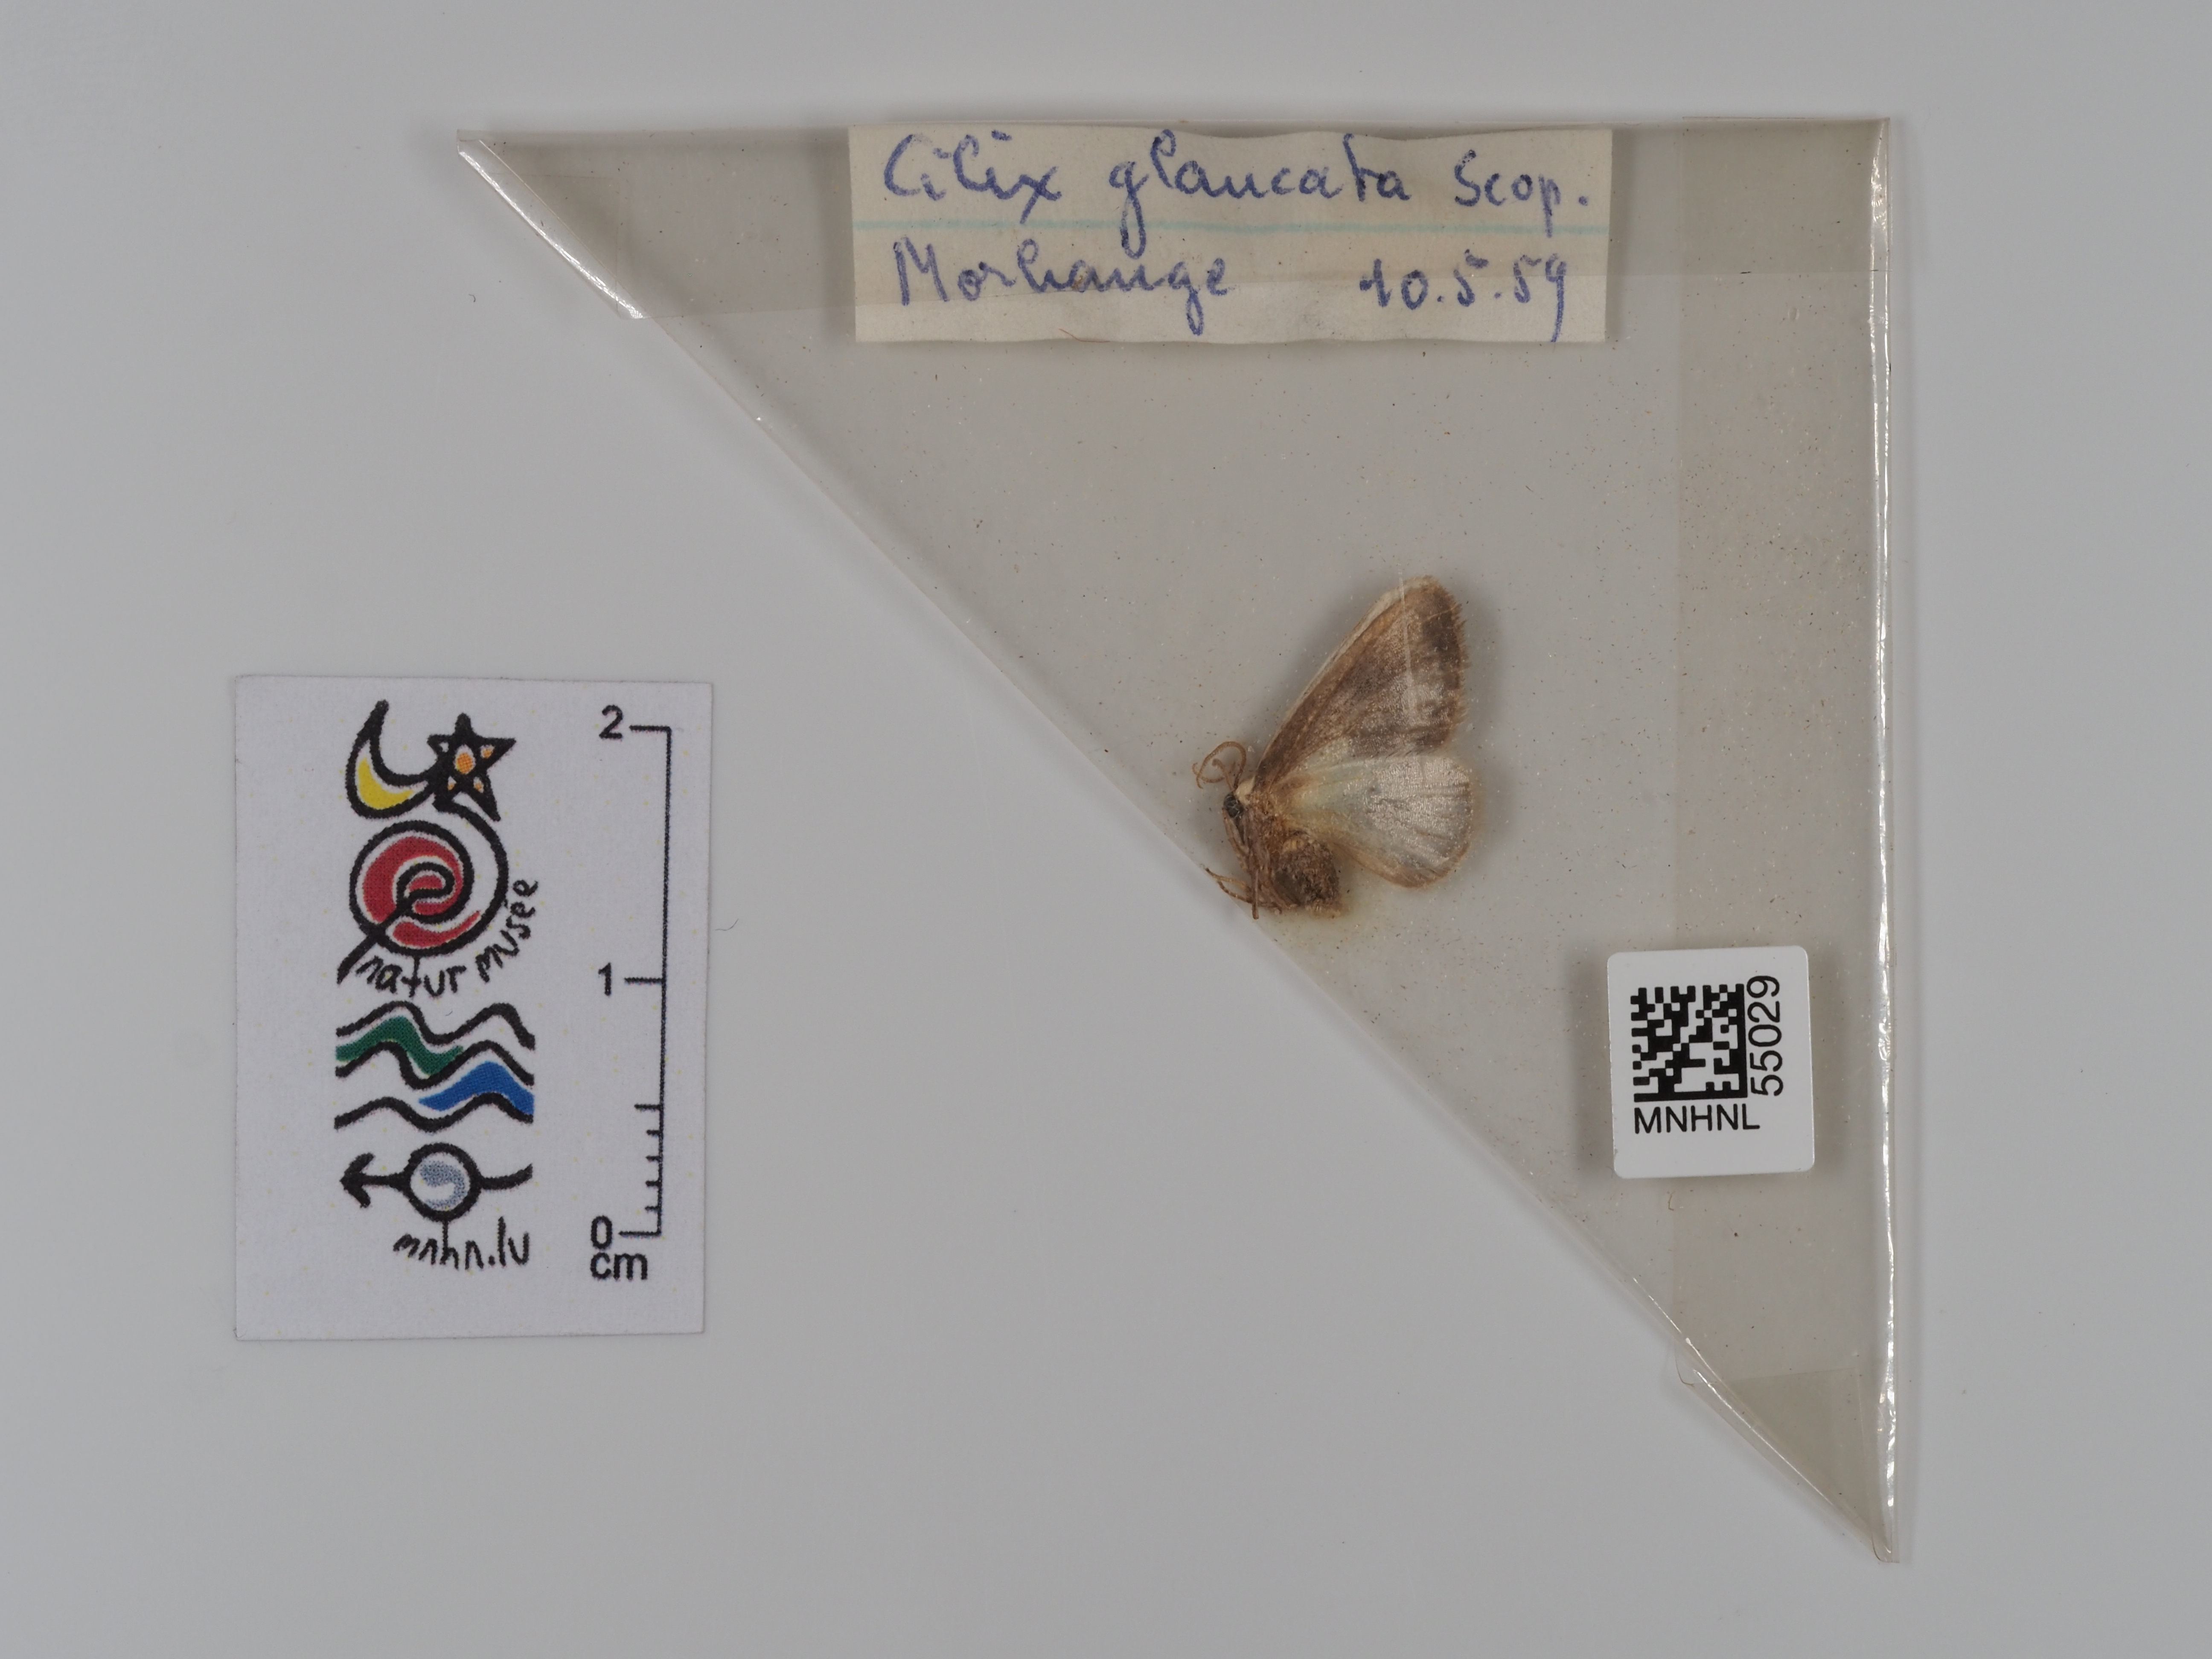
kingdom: Animalia
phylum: Arthropoda
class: Insecta
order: Lepidoptera
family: Drepanidae
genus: Cilix
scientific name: Cilix glaucata
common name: Chinese character
